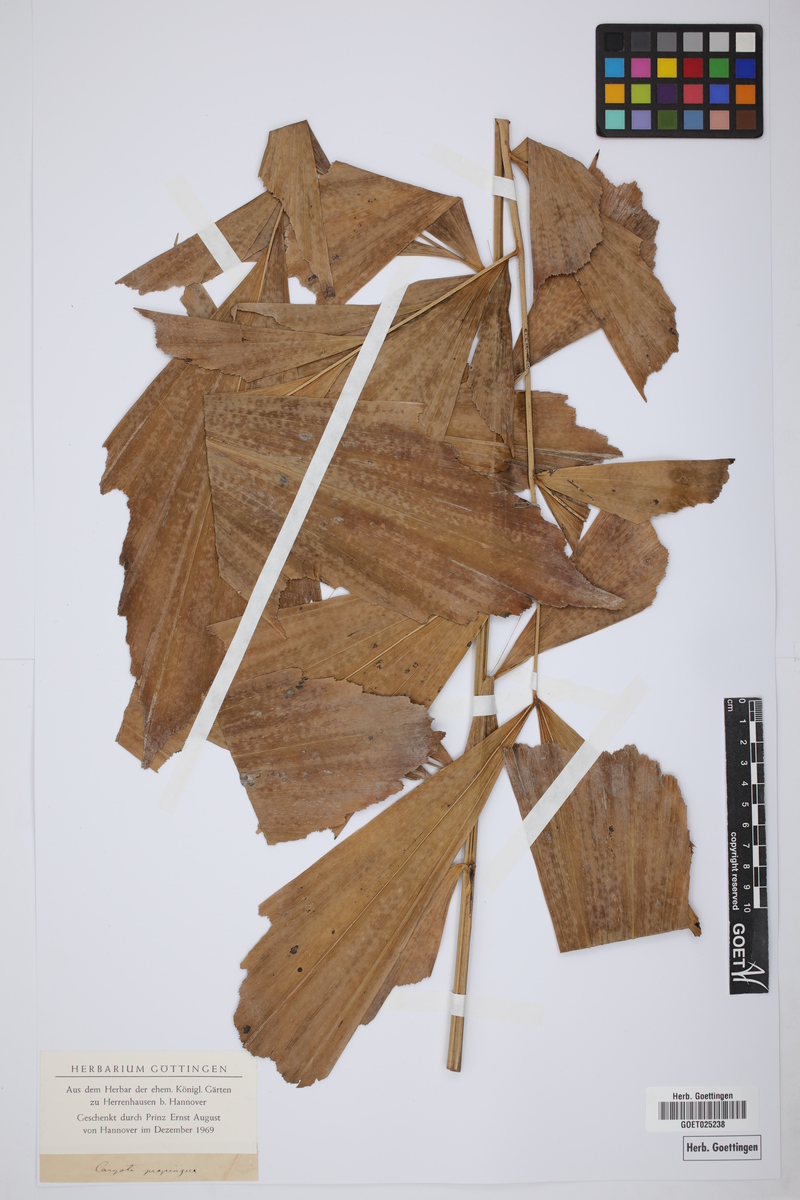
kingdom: Plantae
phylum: Tracheophyta
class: Liliopsida
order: Arecales
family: Arecaceae
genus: Caryota
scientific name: Caryota mitis
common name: Burmese fishtail palm
